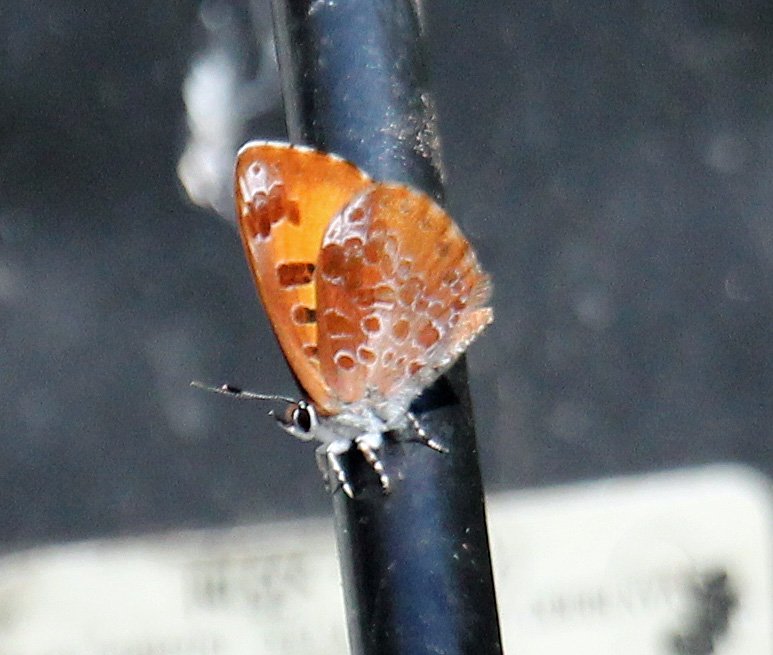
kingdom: Animalia
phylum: Arthropoda
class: Insecta
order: Lepidoptera
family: Lycaenidae
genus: Feniseca
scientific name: Feniseca tarquinius
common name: Harvester
